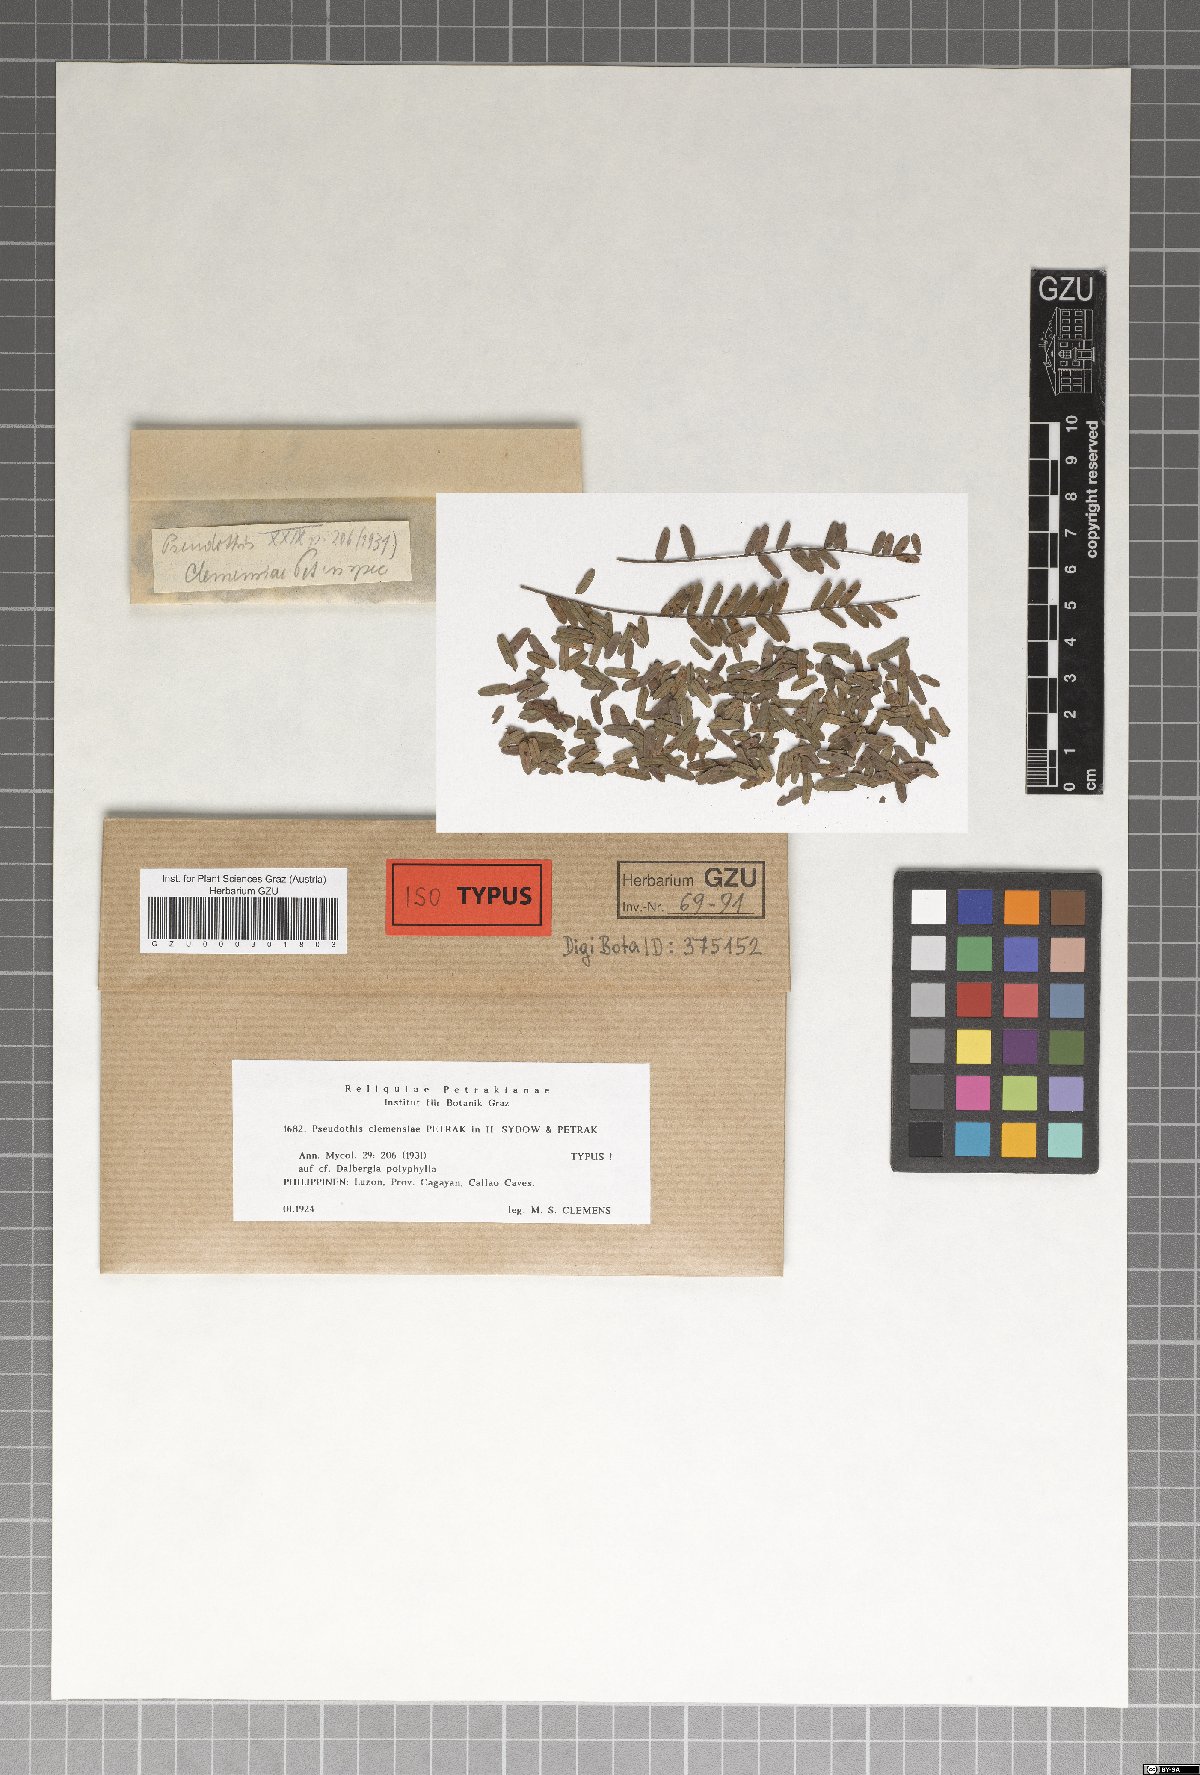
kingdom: Fungi
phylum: Ascomycota
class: Sordariomycetes
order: Diaporthales
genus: Pseudothis
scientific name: Pseudothis clemensiae
